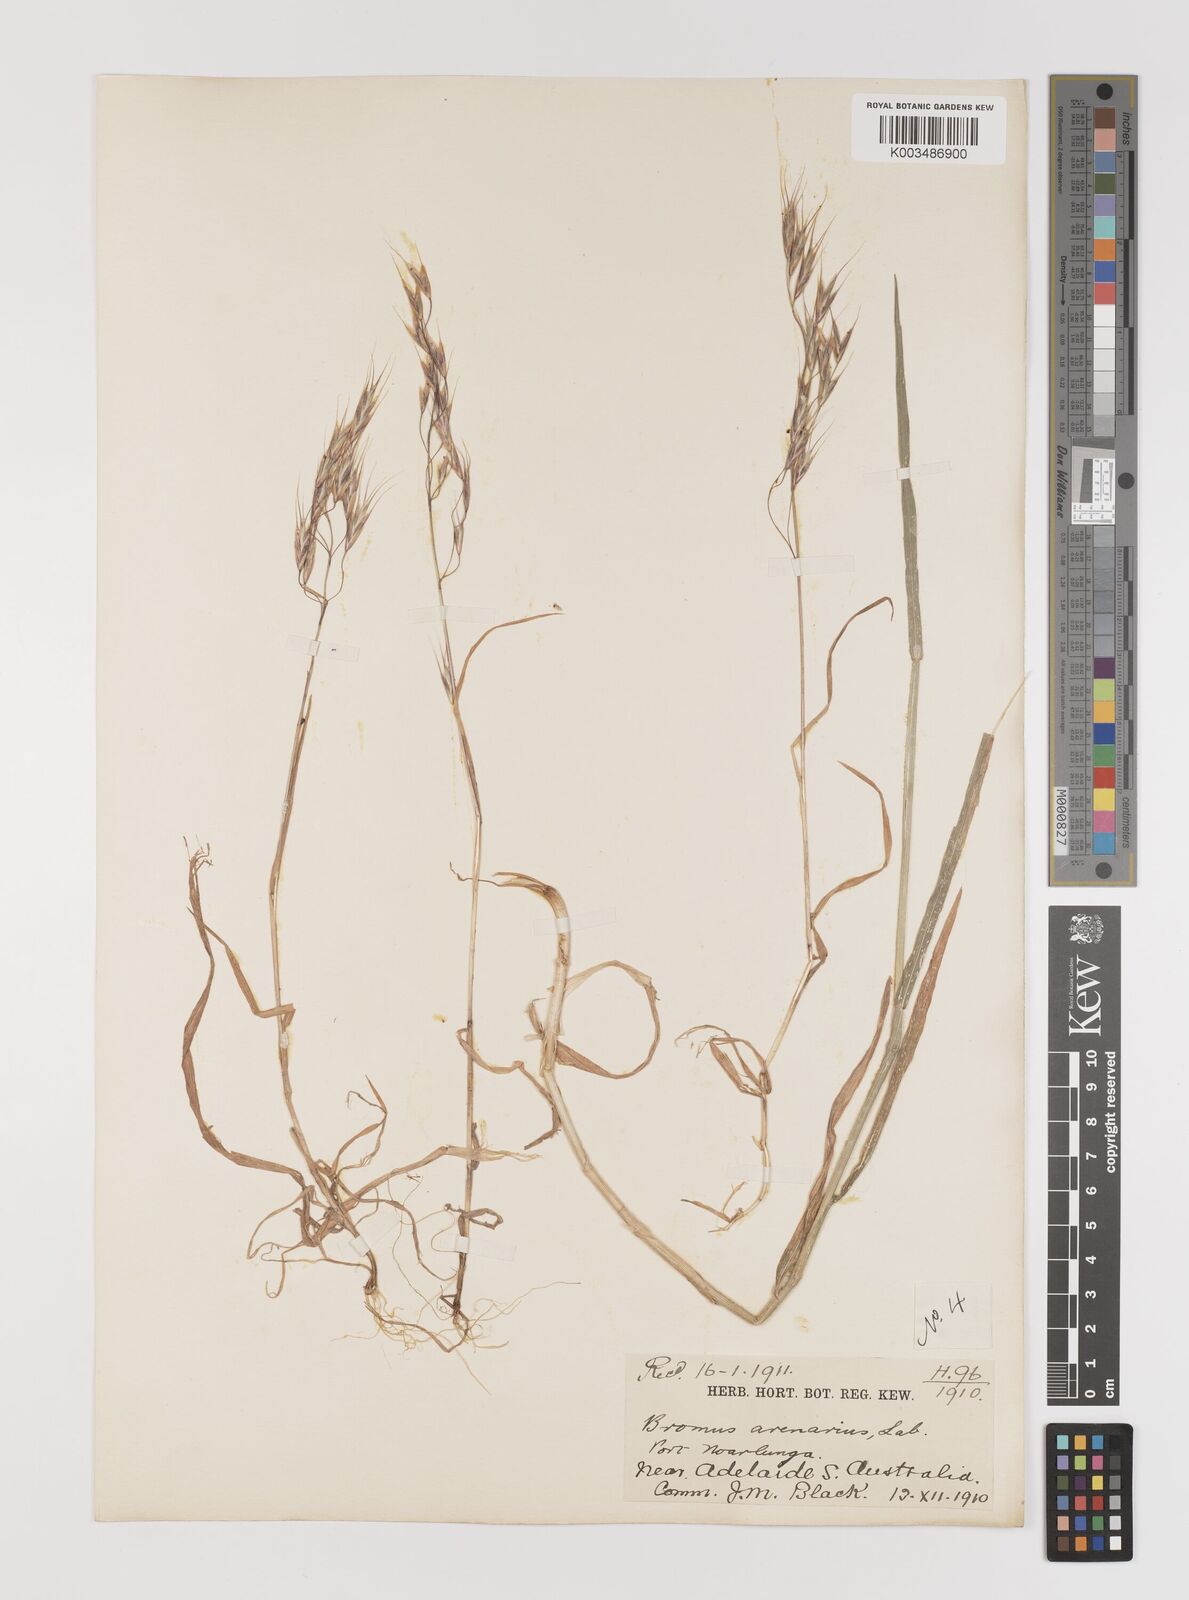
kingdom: Plantae
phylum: Tracheophyta
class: Liliopsida
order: Poales
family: Poaceae
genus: Bromus
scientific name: Bromus arenarius
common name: Australian brome
